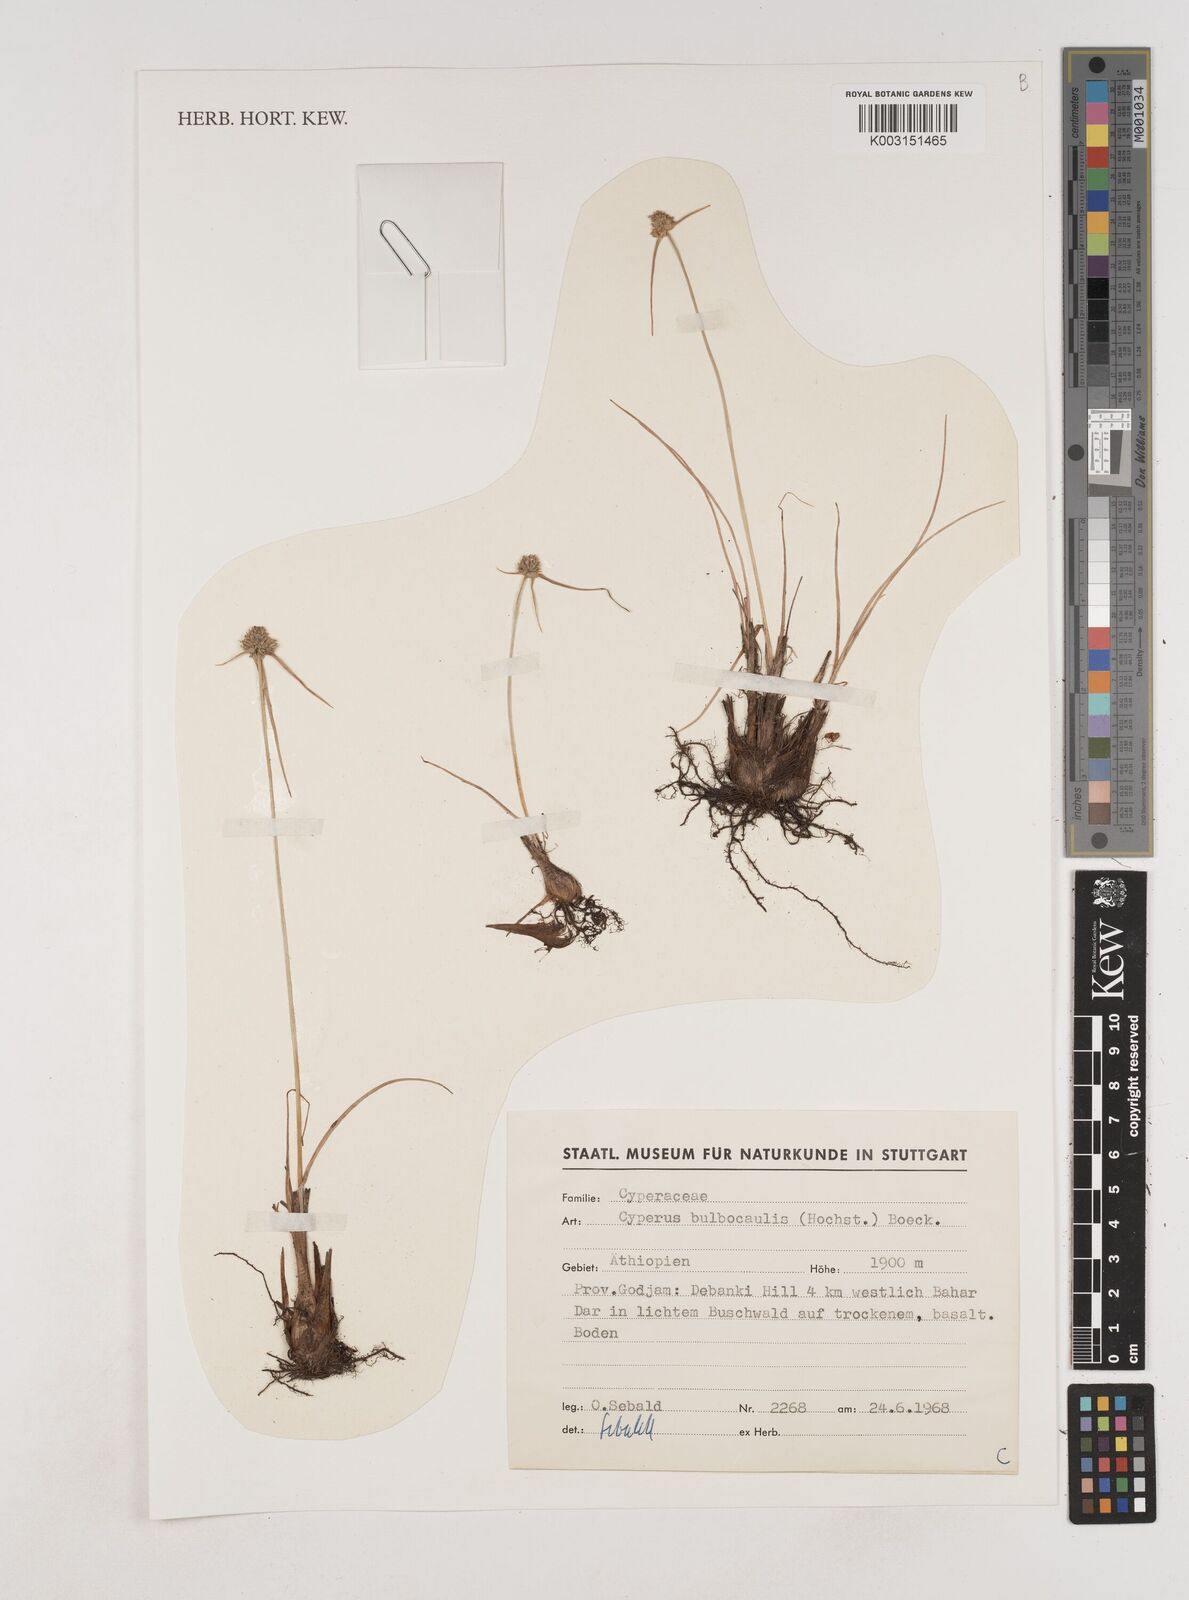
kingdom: Plantae
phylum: Tracheophyta
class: Liliopsida
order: Poales
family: Cyperaceae
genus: Cyperus
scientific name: Cyperus plateilema
